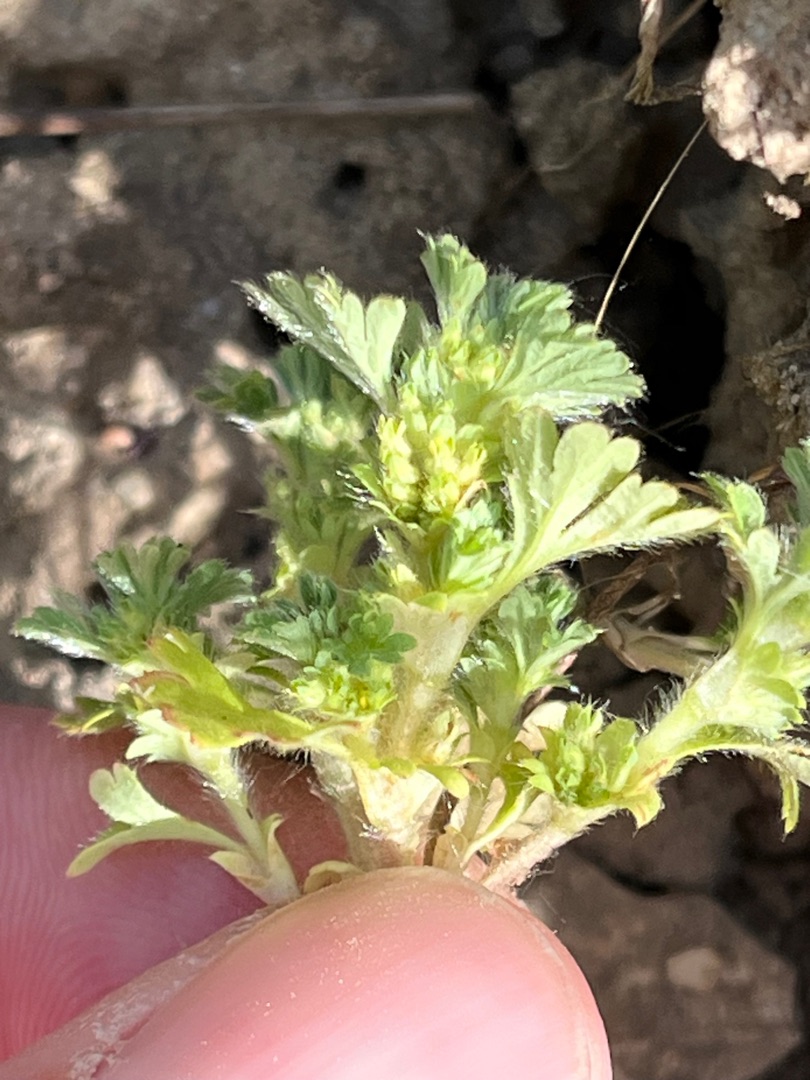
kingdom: Plantae
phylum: Tracheophyta
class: Magnoliopsida
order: Rosales
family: Rosaceae
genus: Aphanes
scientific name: Aphanes arvensis
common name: Dværgløvefod
